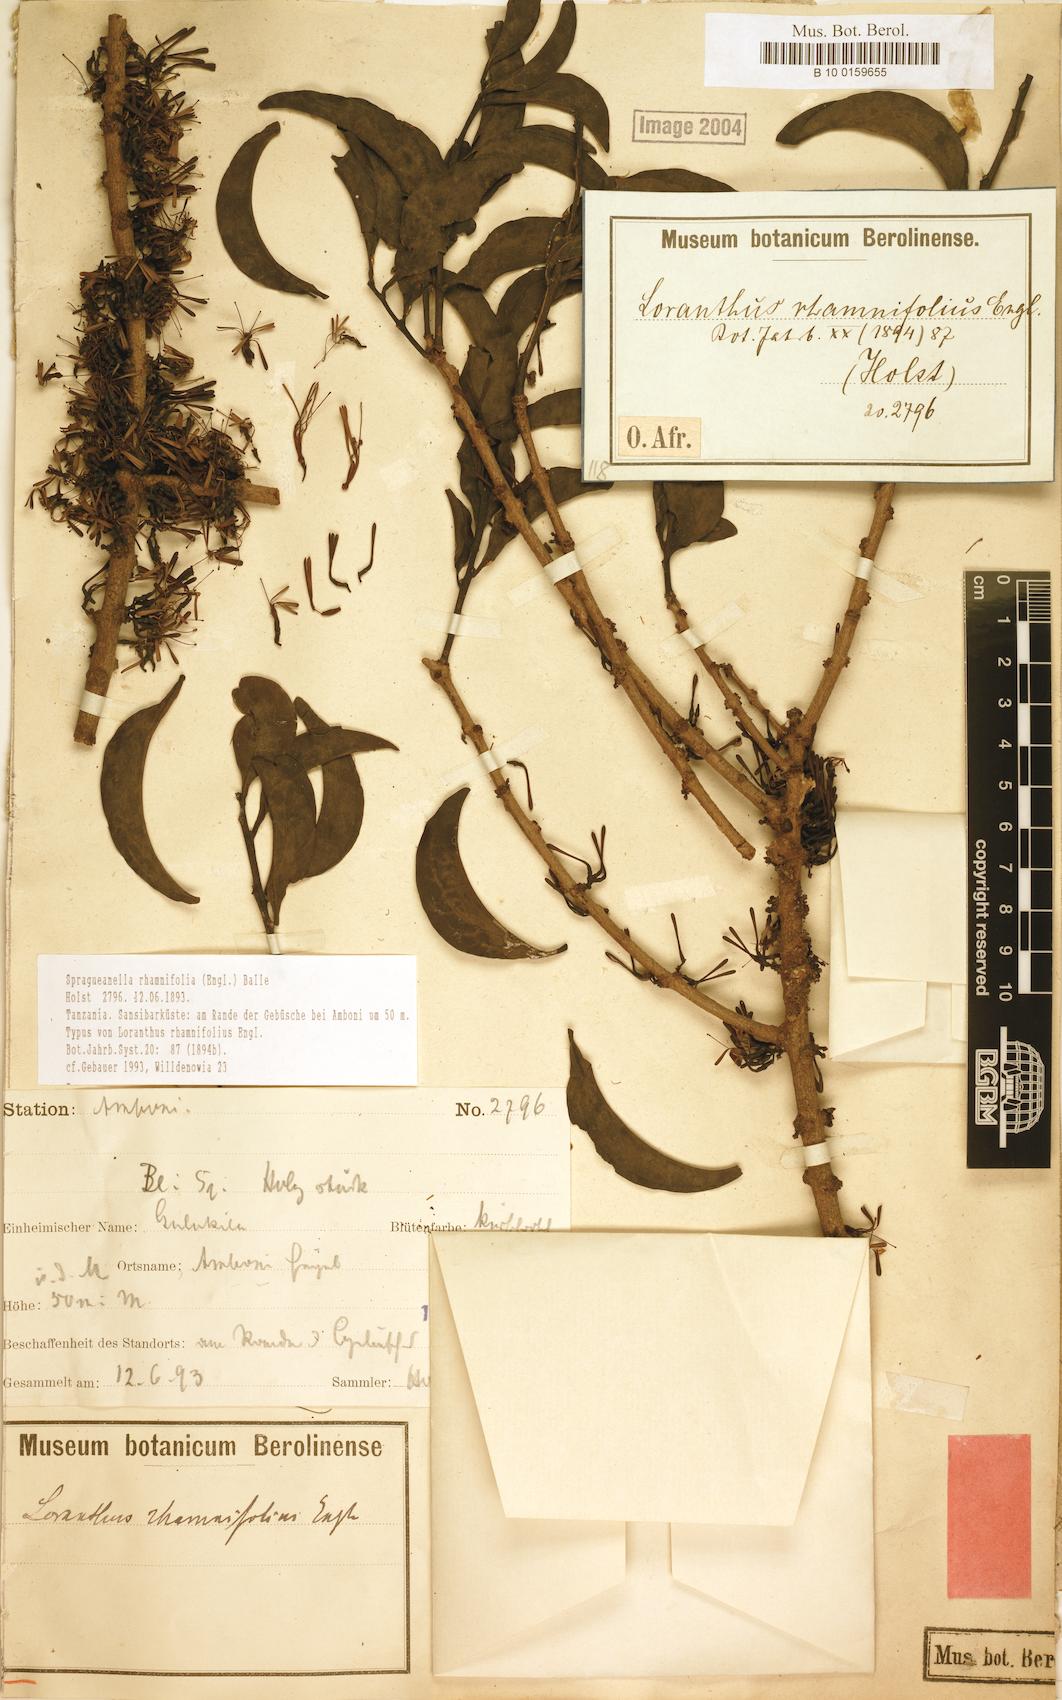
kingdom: Plantae
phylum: Tracheophyta
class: Magnoliopsida
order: Santalales
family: Loranthaceae
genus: Spragueanella
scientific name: Spragueanella rhamnifolia
